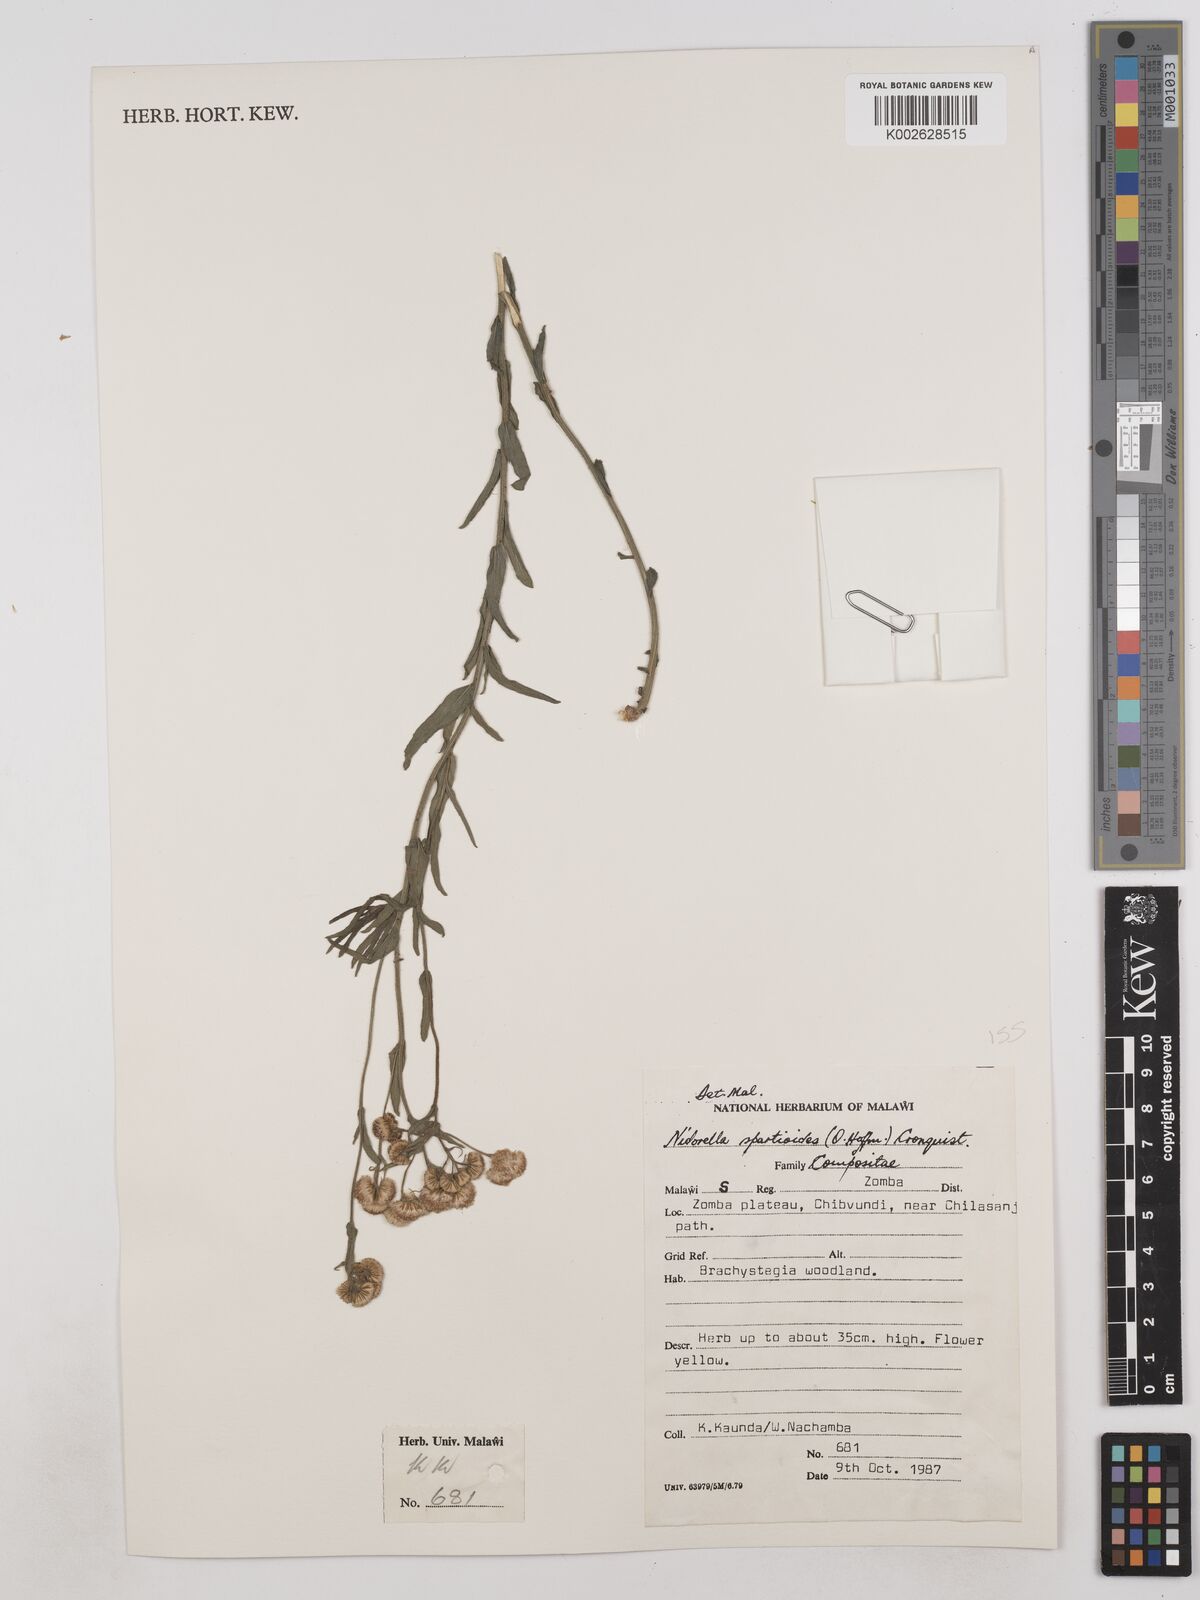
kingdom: Plantae
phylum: Tracheophyta
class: Magnoliopsida
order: Asterales
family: Asteraceae
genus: Nidorella
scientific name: Nidorella spartioides
